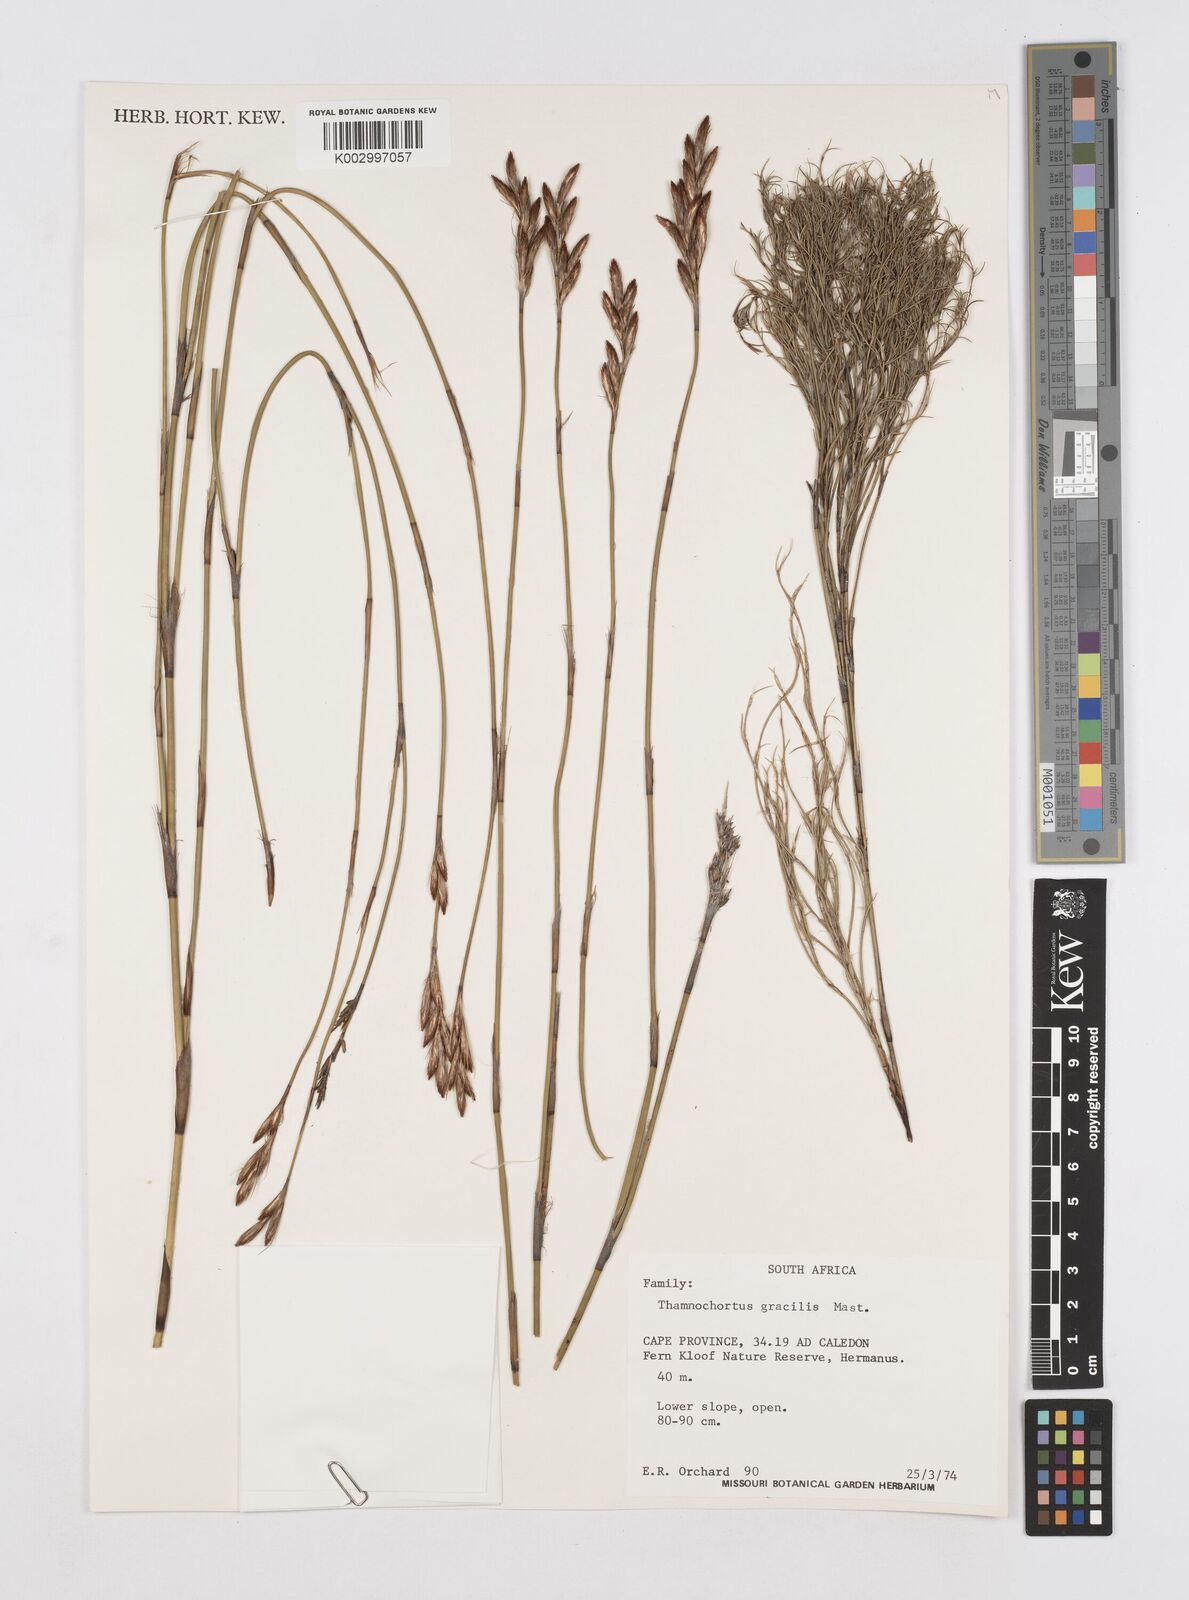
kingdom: Plantae
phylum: Tracheophyta
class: Liliopsida
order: Poales
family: Restionaceae
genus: Thamnochortus
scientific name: Thamnochortus gracilis
